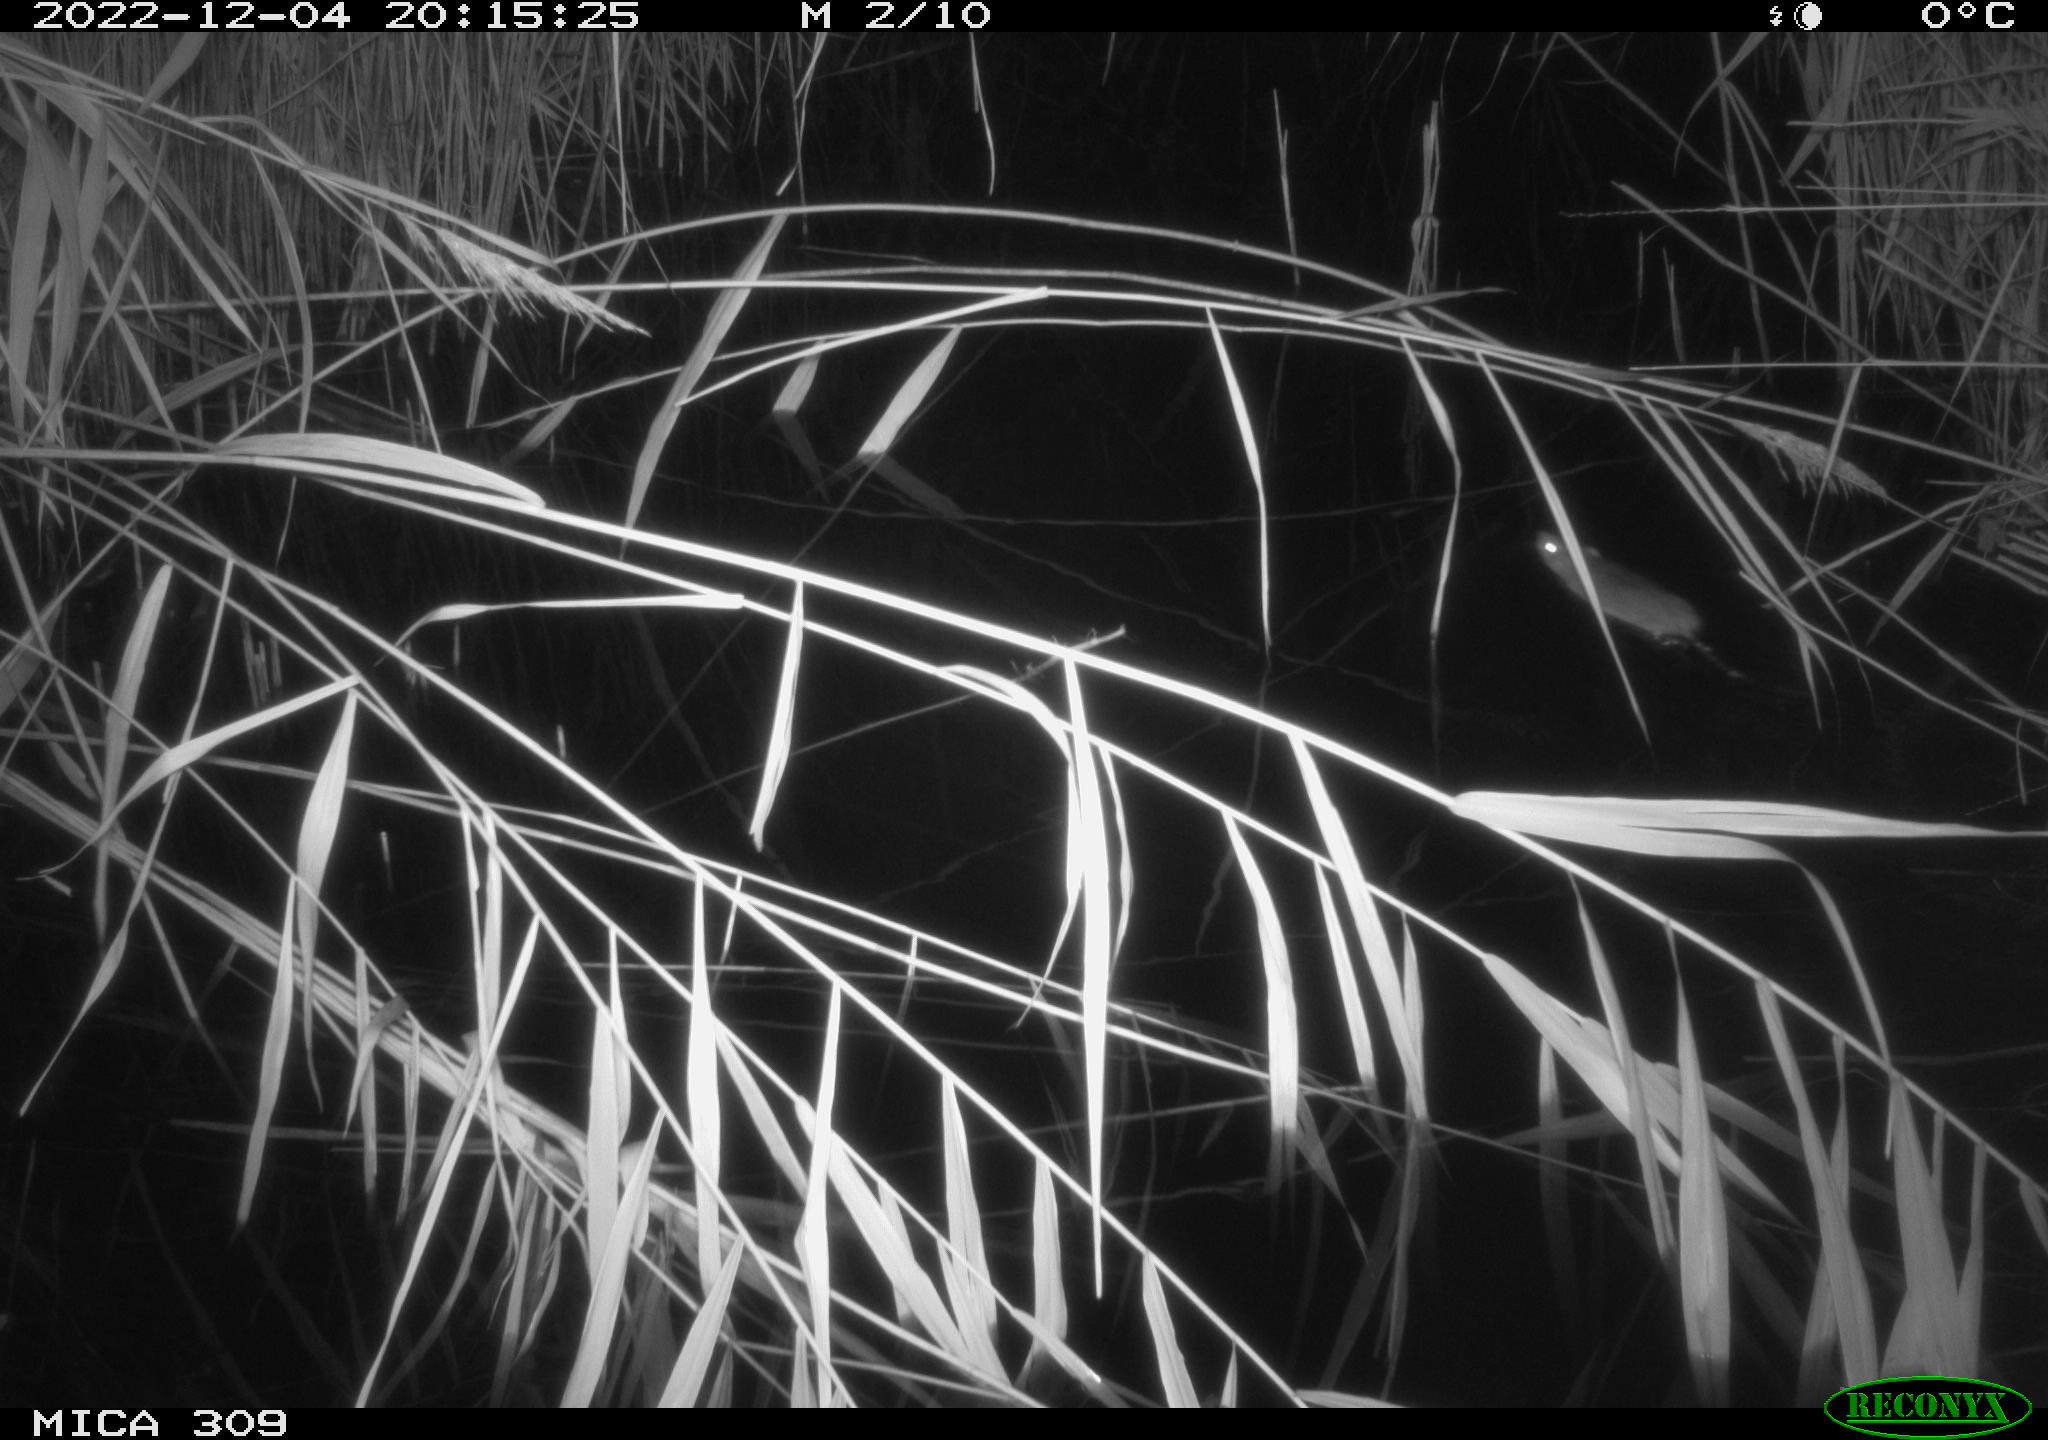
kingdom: Animalia
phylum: Chordata
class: Mammalia
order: Rodentia
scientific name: Rodentia
